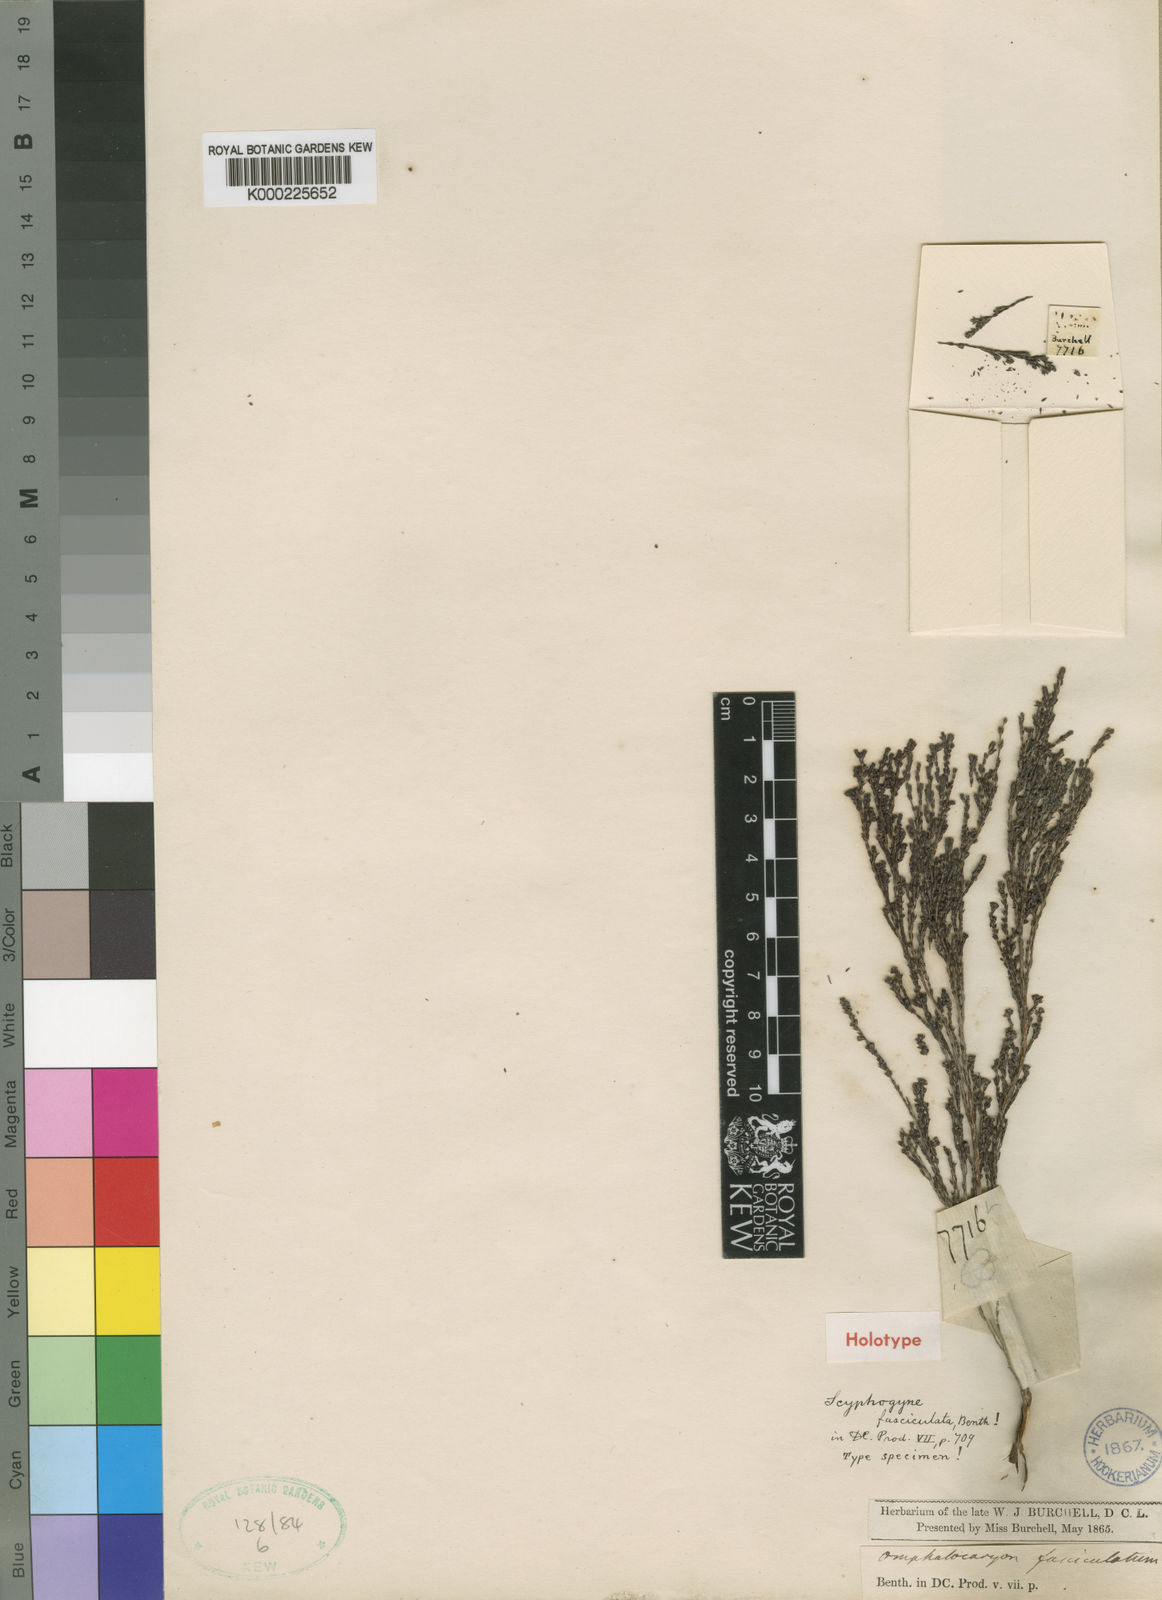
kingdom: Plantae
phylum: Tracheophyta
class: Magnoliopsida
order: Ericales
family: Ericaceae
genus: Erica
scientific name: Erica eglandulosa
